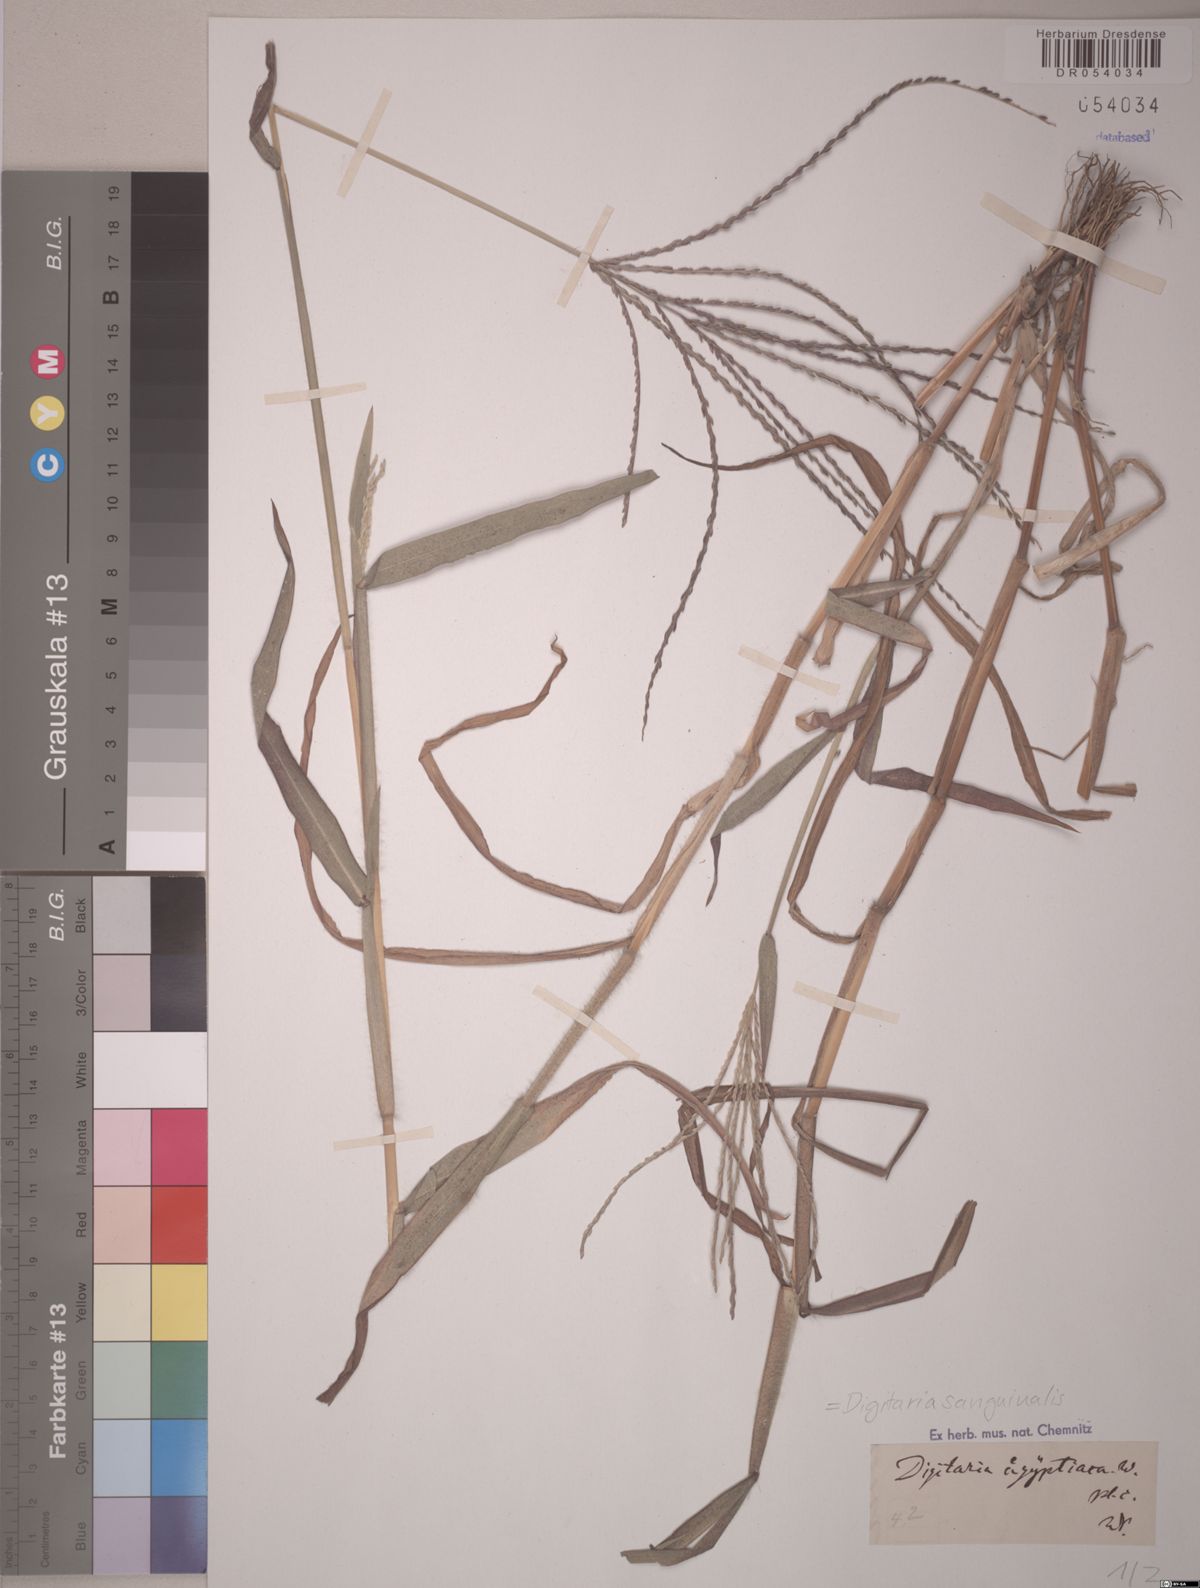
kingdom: Plantae
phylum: Tracheophyta
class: Liliopsida
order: Poales
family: Poaceae
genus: Digitaria
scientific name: Digitaria sanguinalis
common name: Hairy crabgrass
